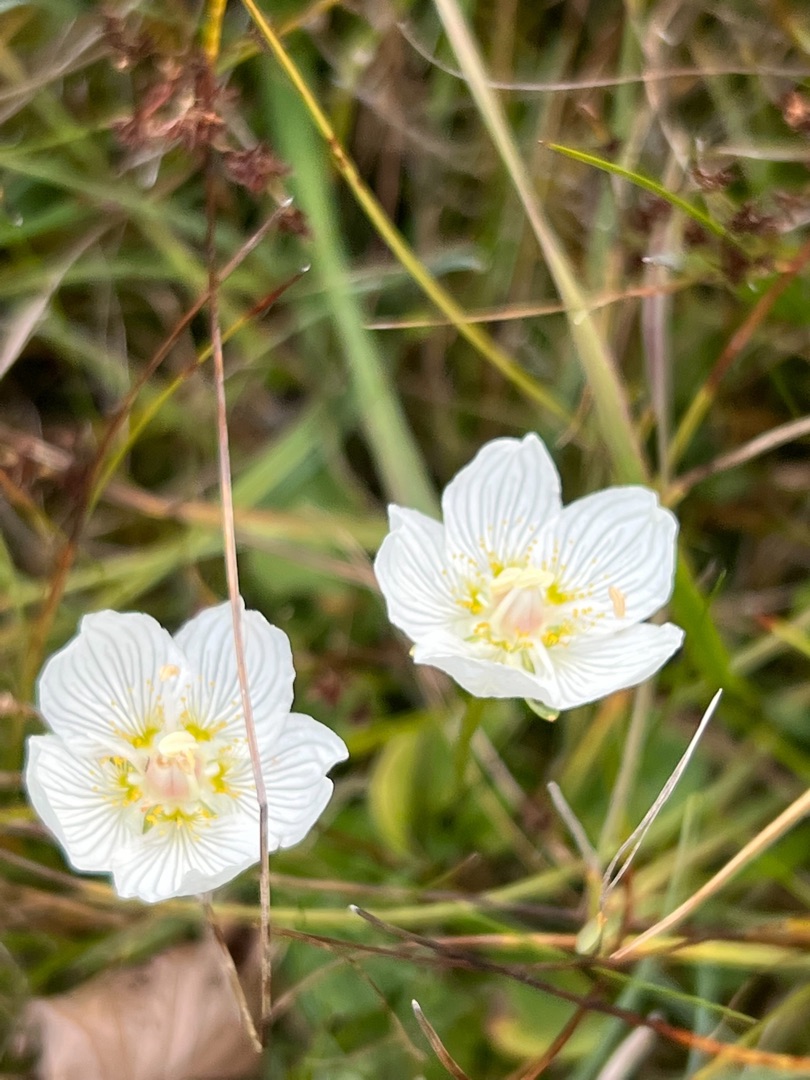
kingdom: Plantae
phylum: Tracheophyta
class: Magnoliopsida
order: Celastrales
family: Parnassiaceae
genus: Parnassia
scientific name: Parnassia palustris
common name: Leverurt
